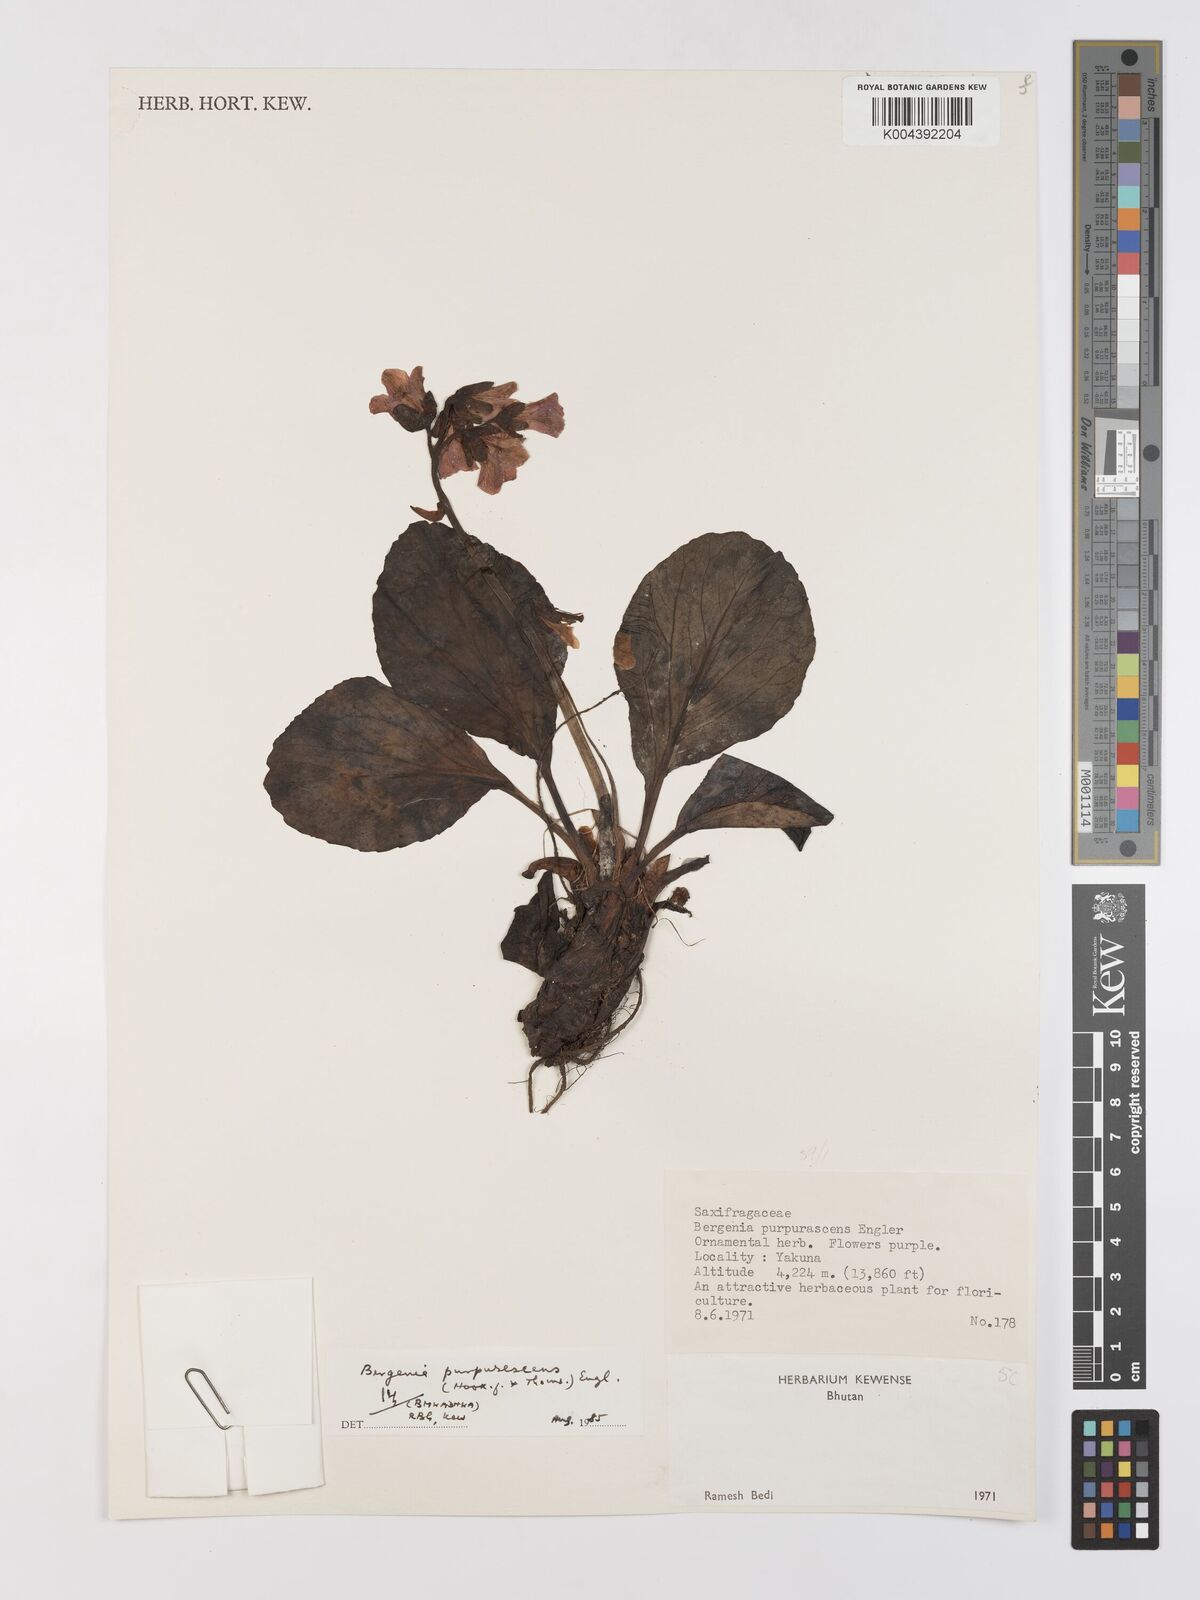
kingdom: Plantae
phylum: Tracheophyta
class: Magnoliopsida
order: Saxifragales
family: Saxifragaceae
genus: Bergenia
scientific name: Bergenia purpurascens
